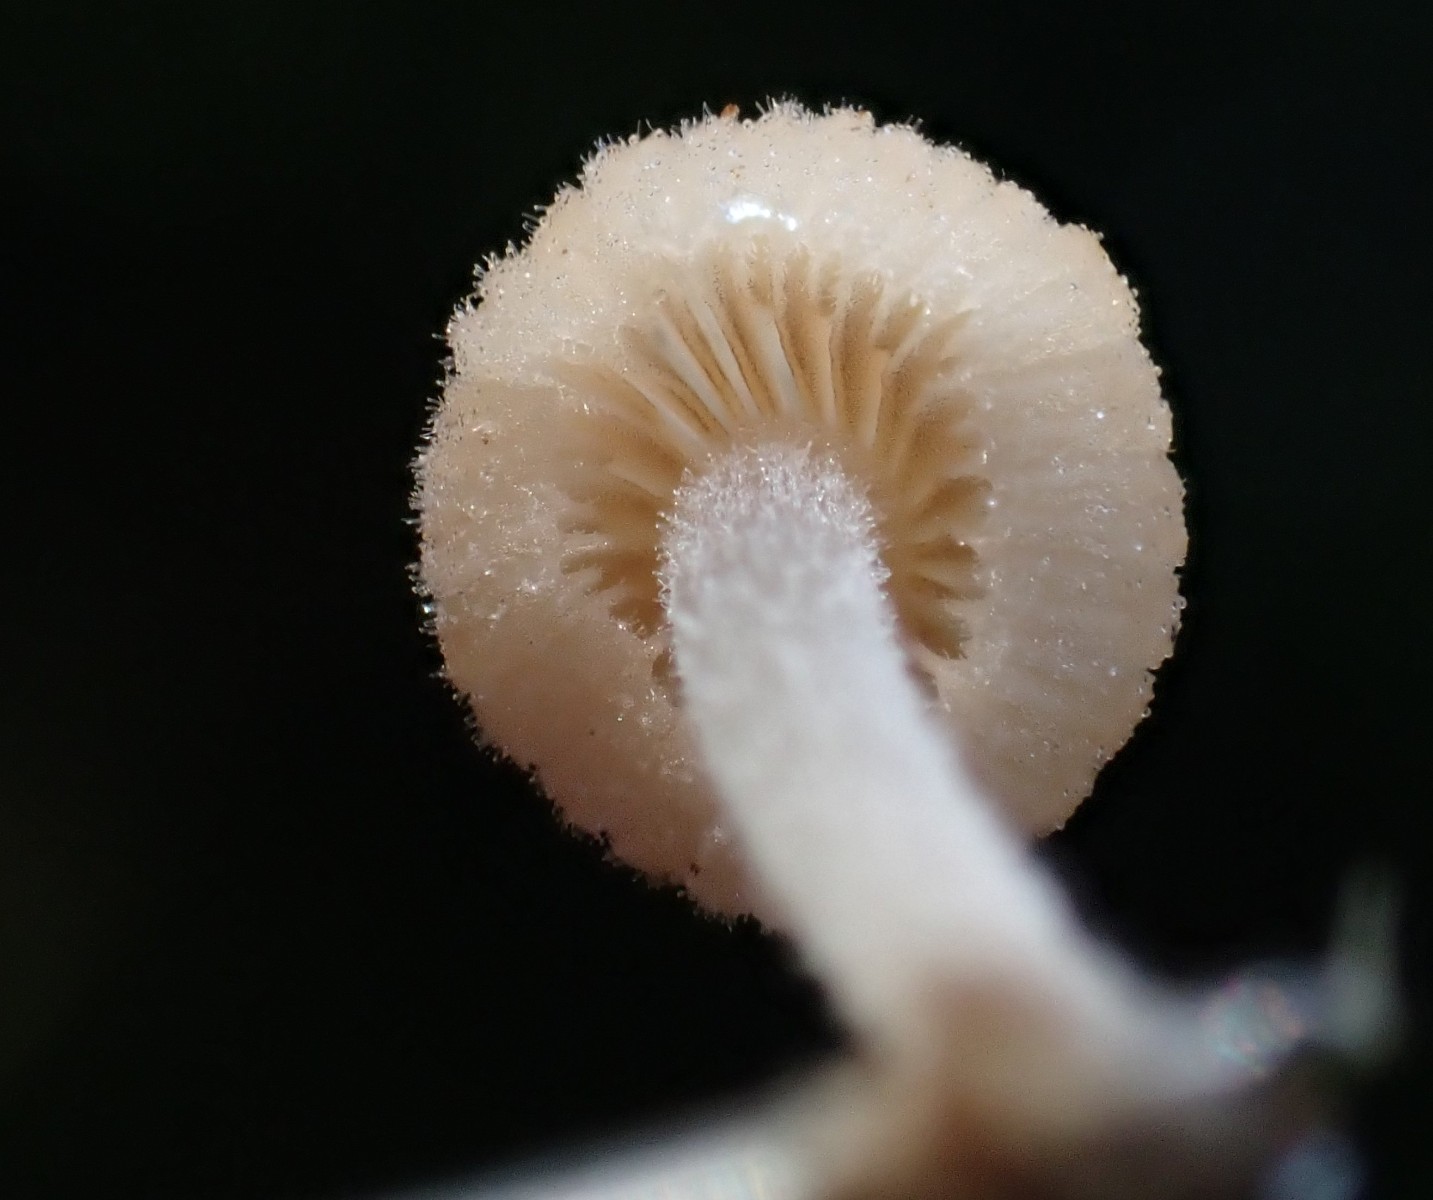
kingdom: Fungi
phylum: Basidiomycota
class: Agaricomycetes
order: Agaricales
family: Psathyrellaceae
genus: Coprinellus
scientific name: Coprinellus
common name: blækhat
